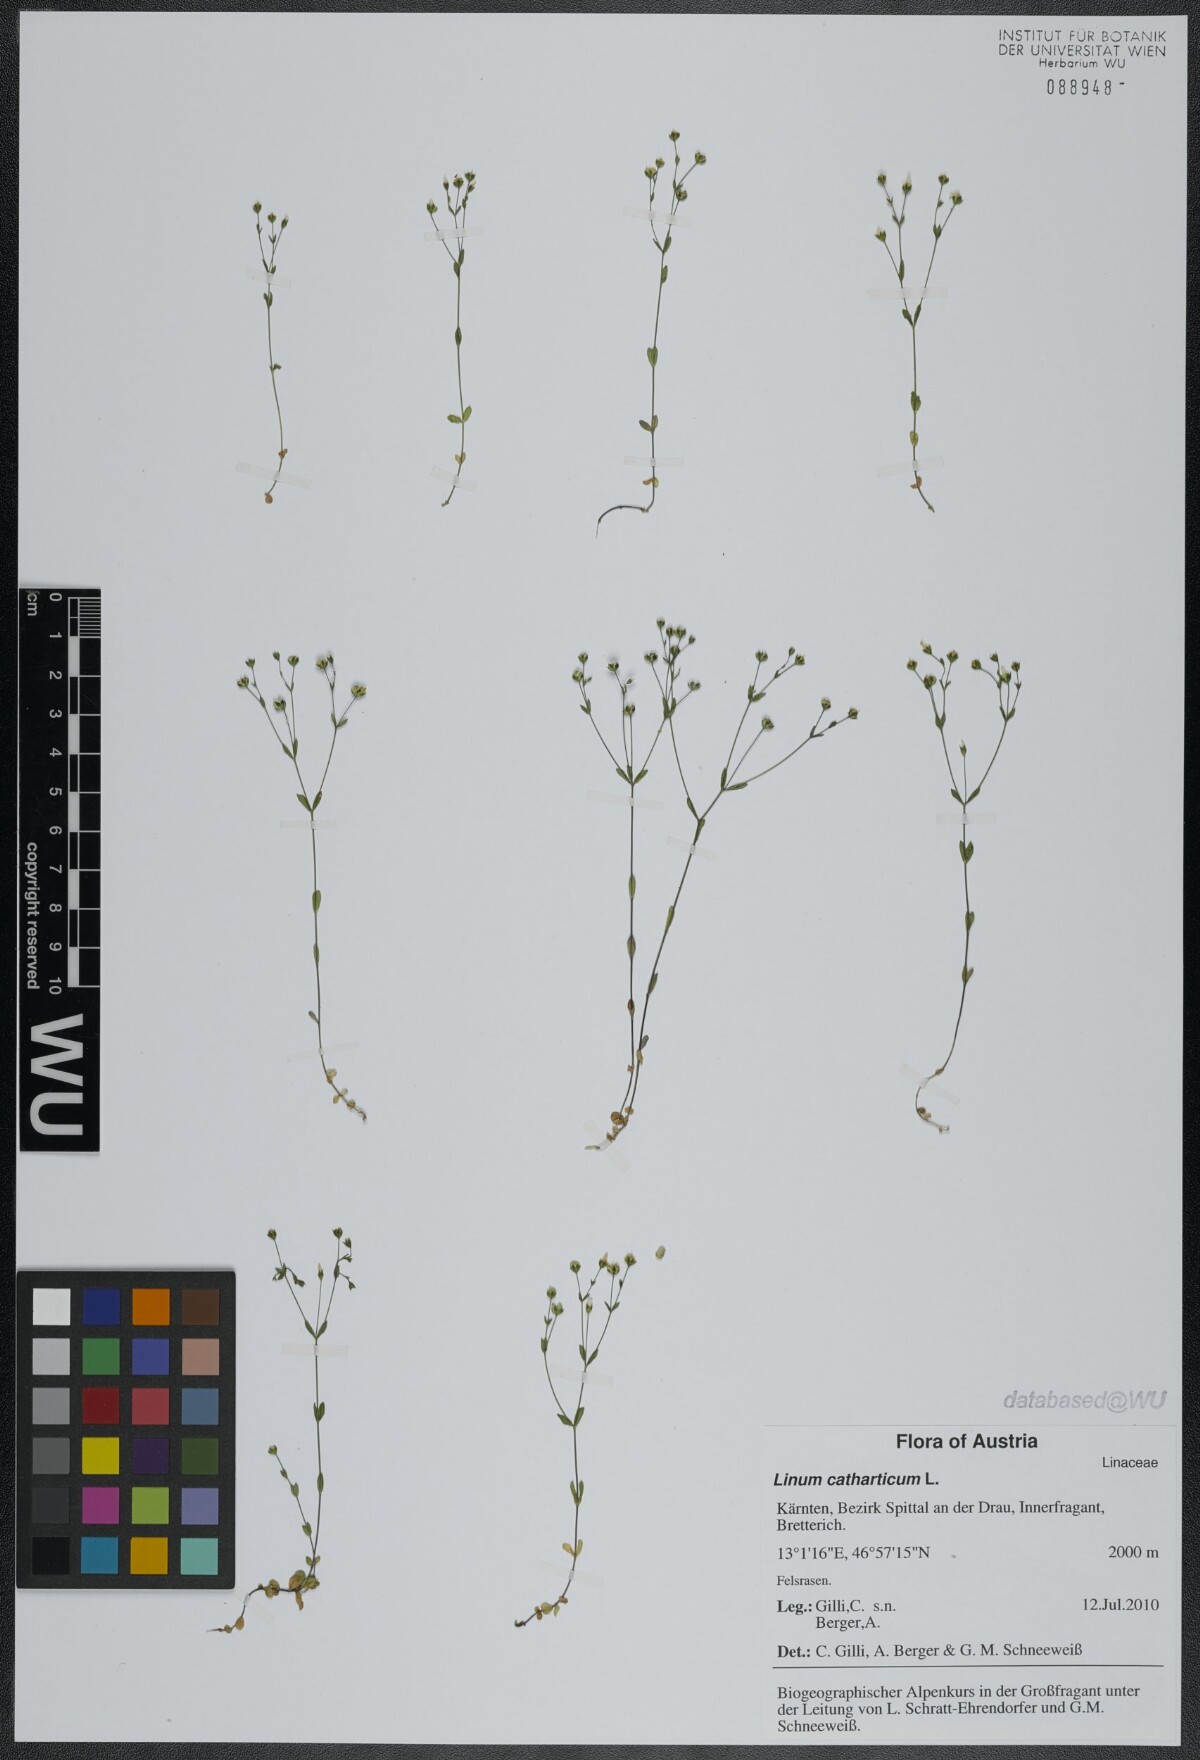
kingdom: Plantae
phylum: Tracheophyta
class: Magnoliopsida
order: Malpighiales
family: Linaceae
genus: Linum
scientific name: Linum catharticum
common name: Fairy flax
